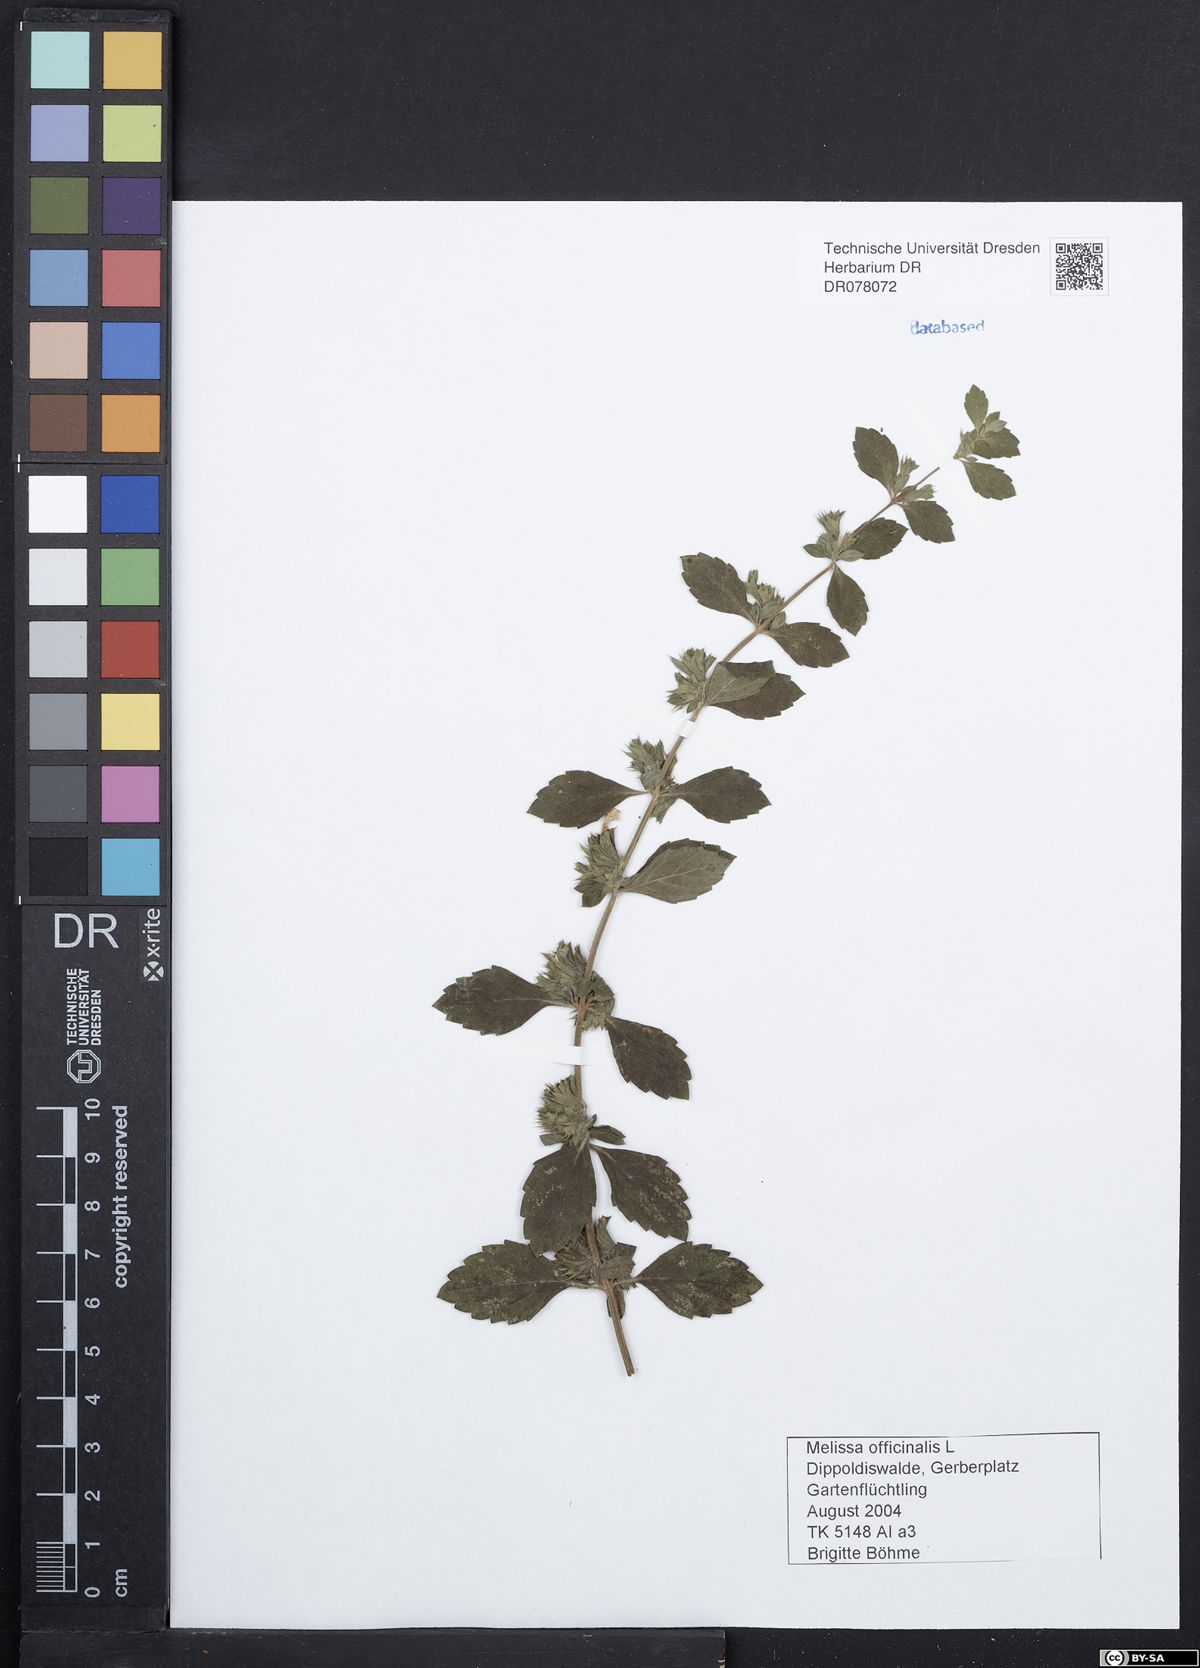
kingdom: Plantae
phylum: Tracheophyta
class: Magnoliopsida
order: Lamiales
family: Lamiaceae
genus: Melissa
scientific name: Melissa officinalis
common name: Balm
